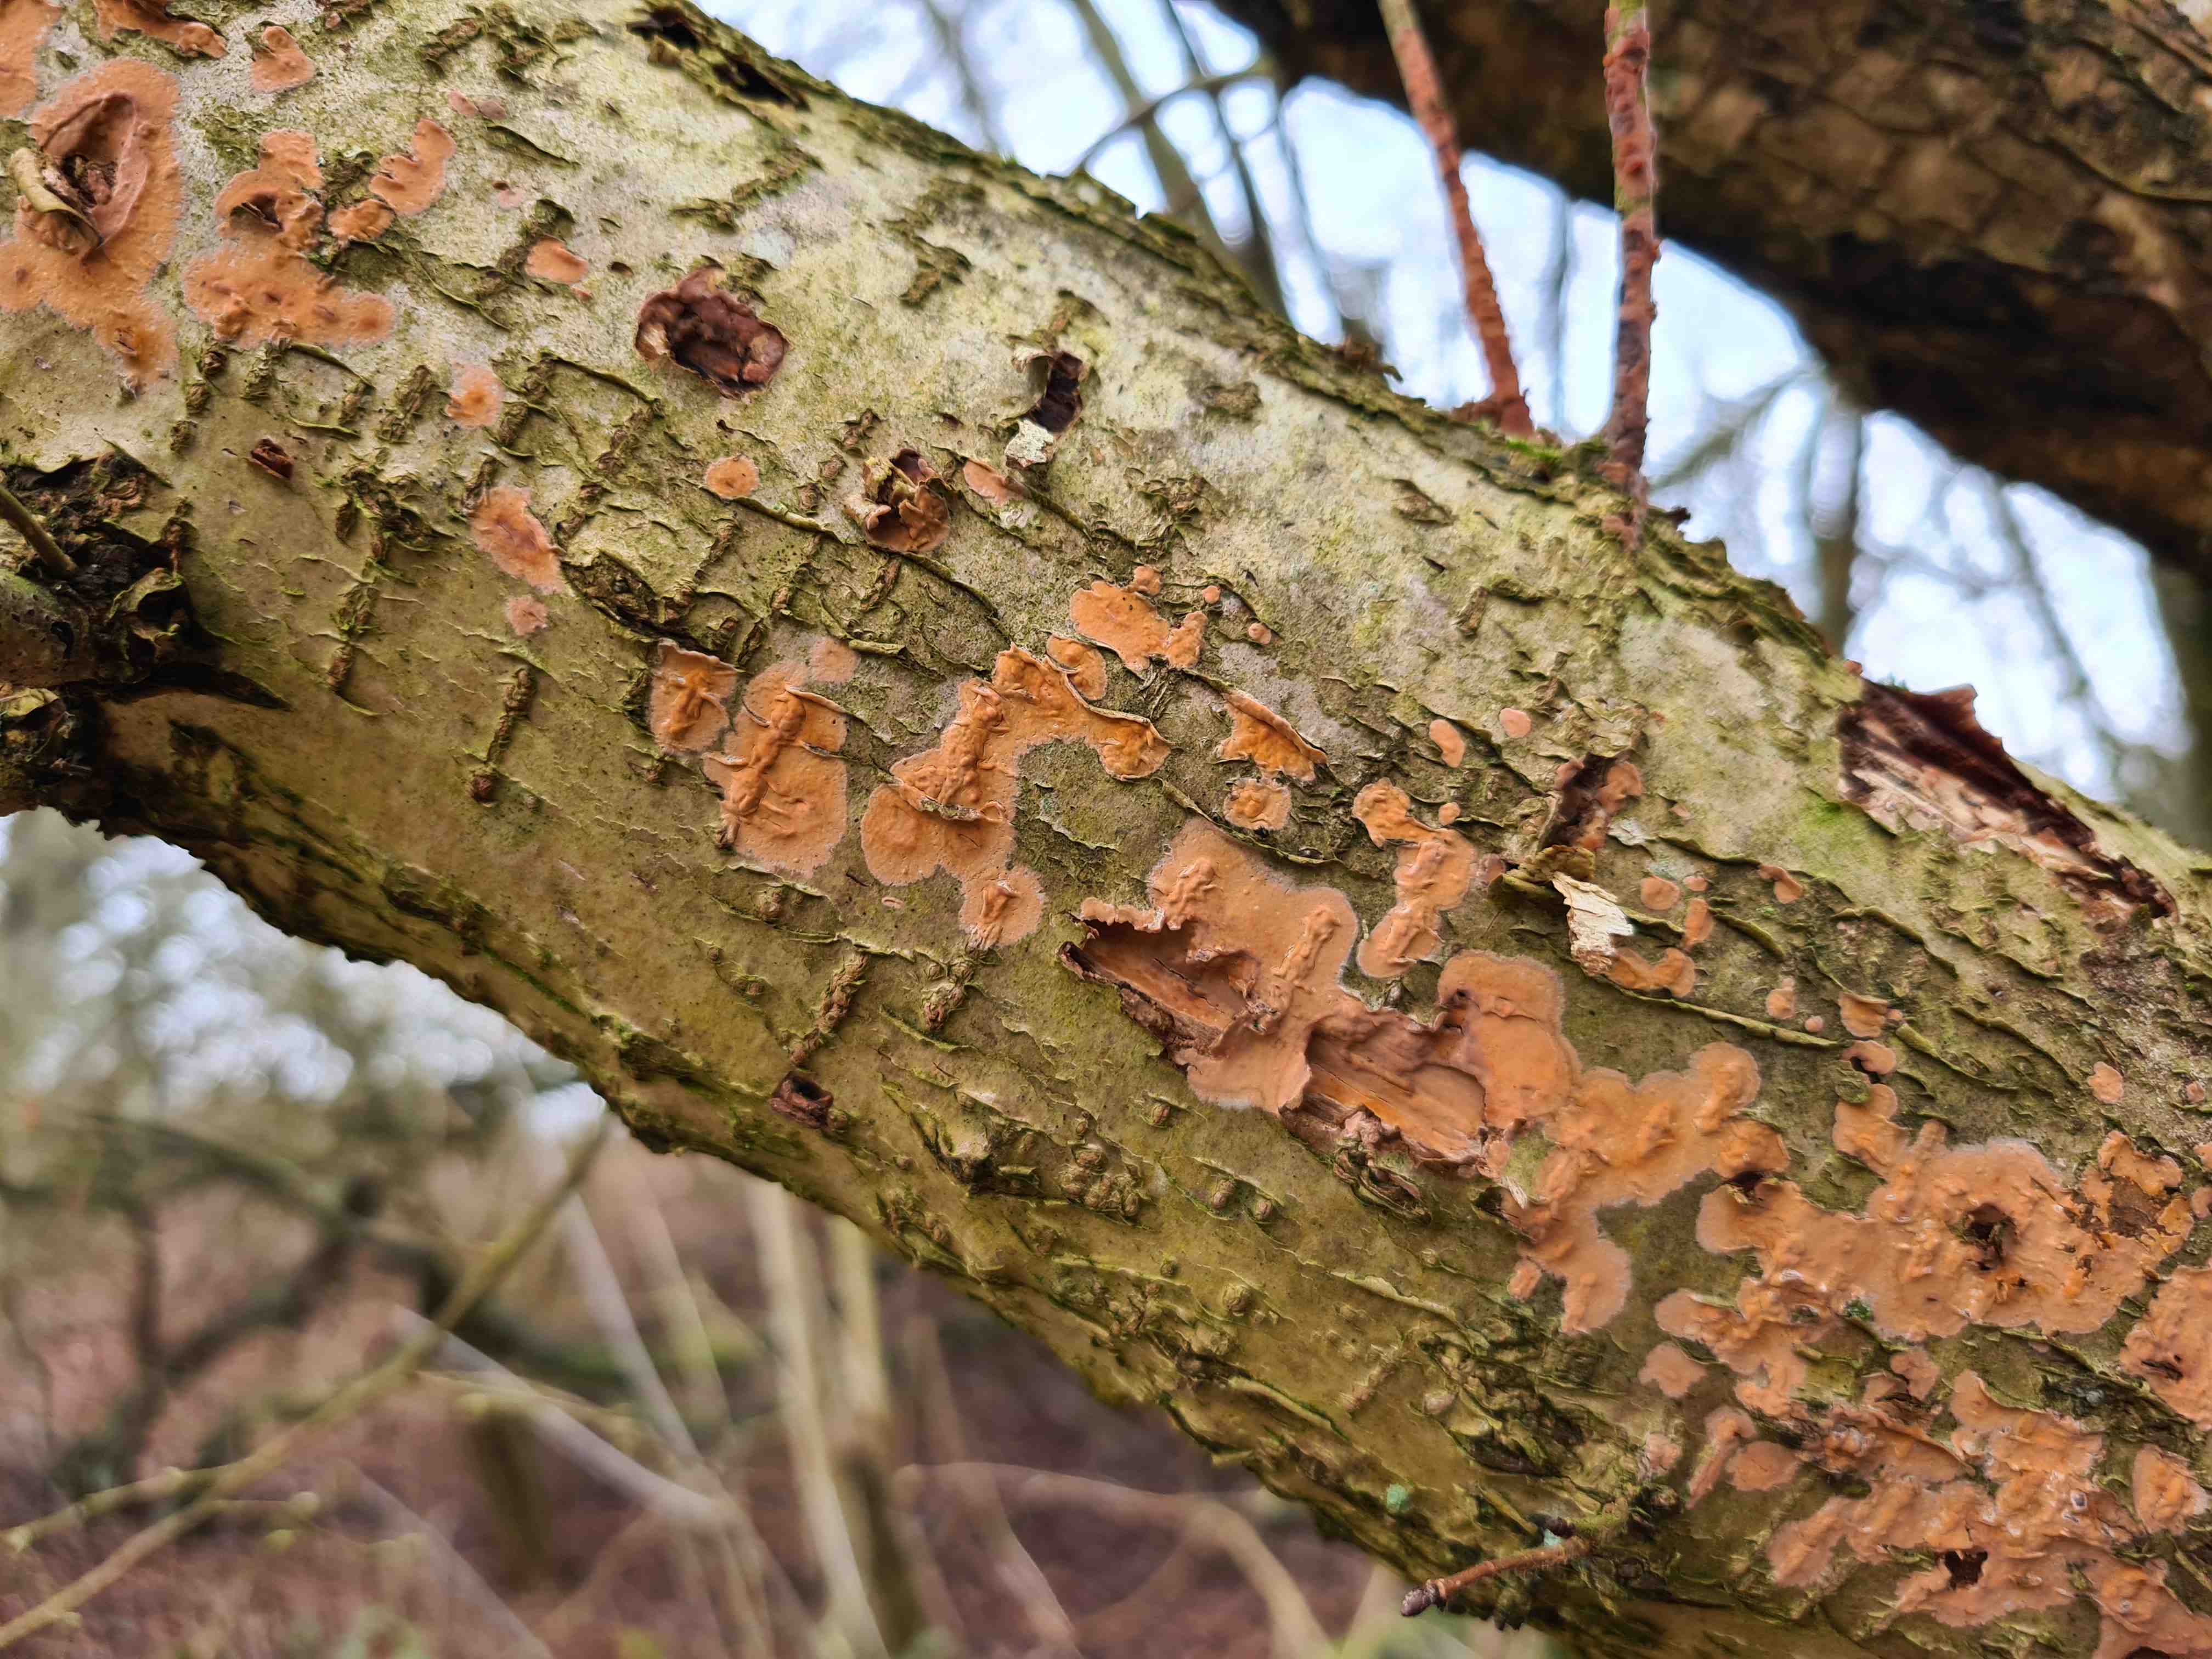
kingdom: Fungi
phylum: Basidiomycota
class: Agaricomycetes
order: Russulales
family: Peniophoraceae
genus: Peniophora
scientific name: Peniophora incarnata
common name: laksefarvet voksskind
